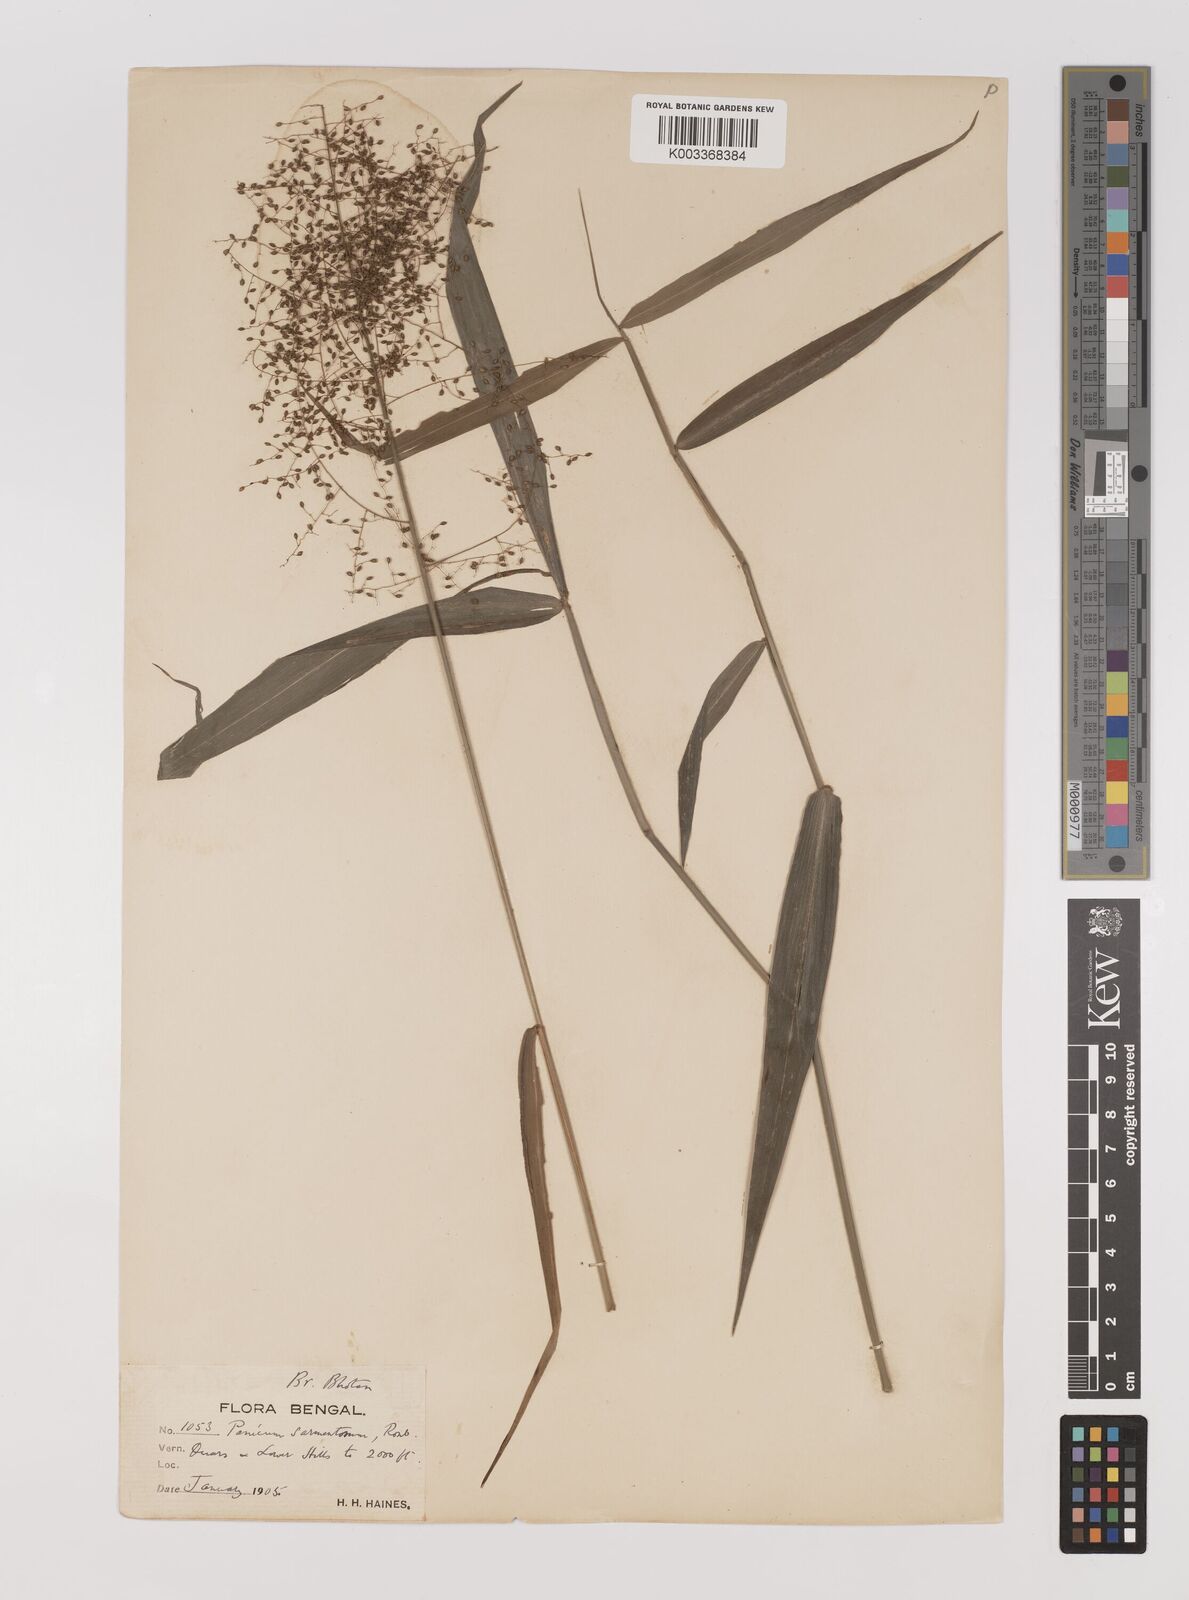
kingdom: Plantae
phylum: Tracheophyta
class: Liliopsida
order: Poales
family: Poaceae
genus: Panicum
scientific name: Panicum incomtum
